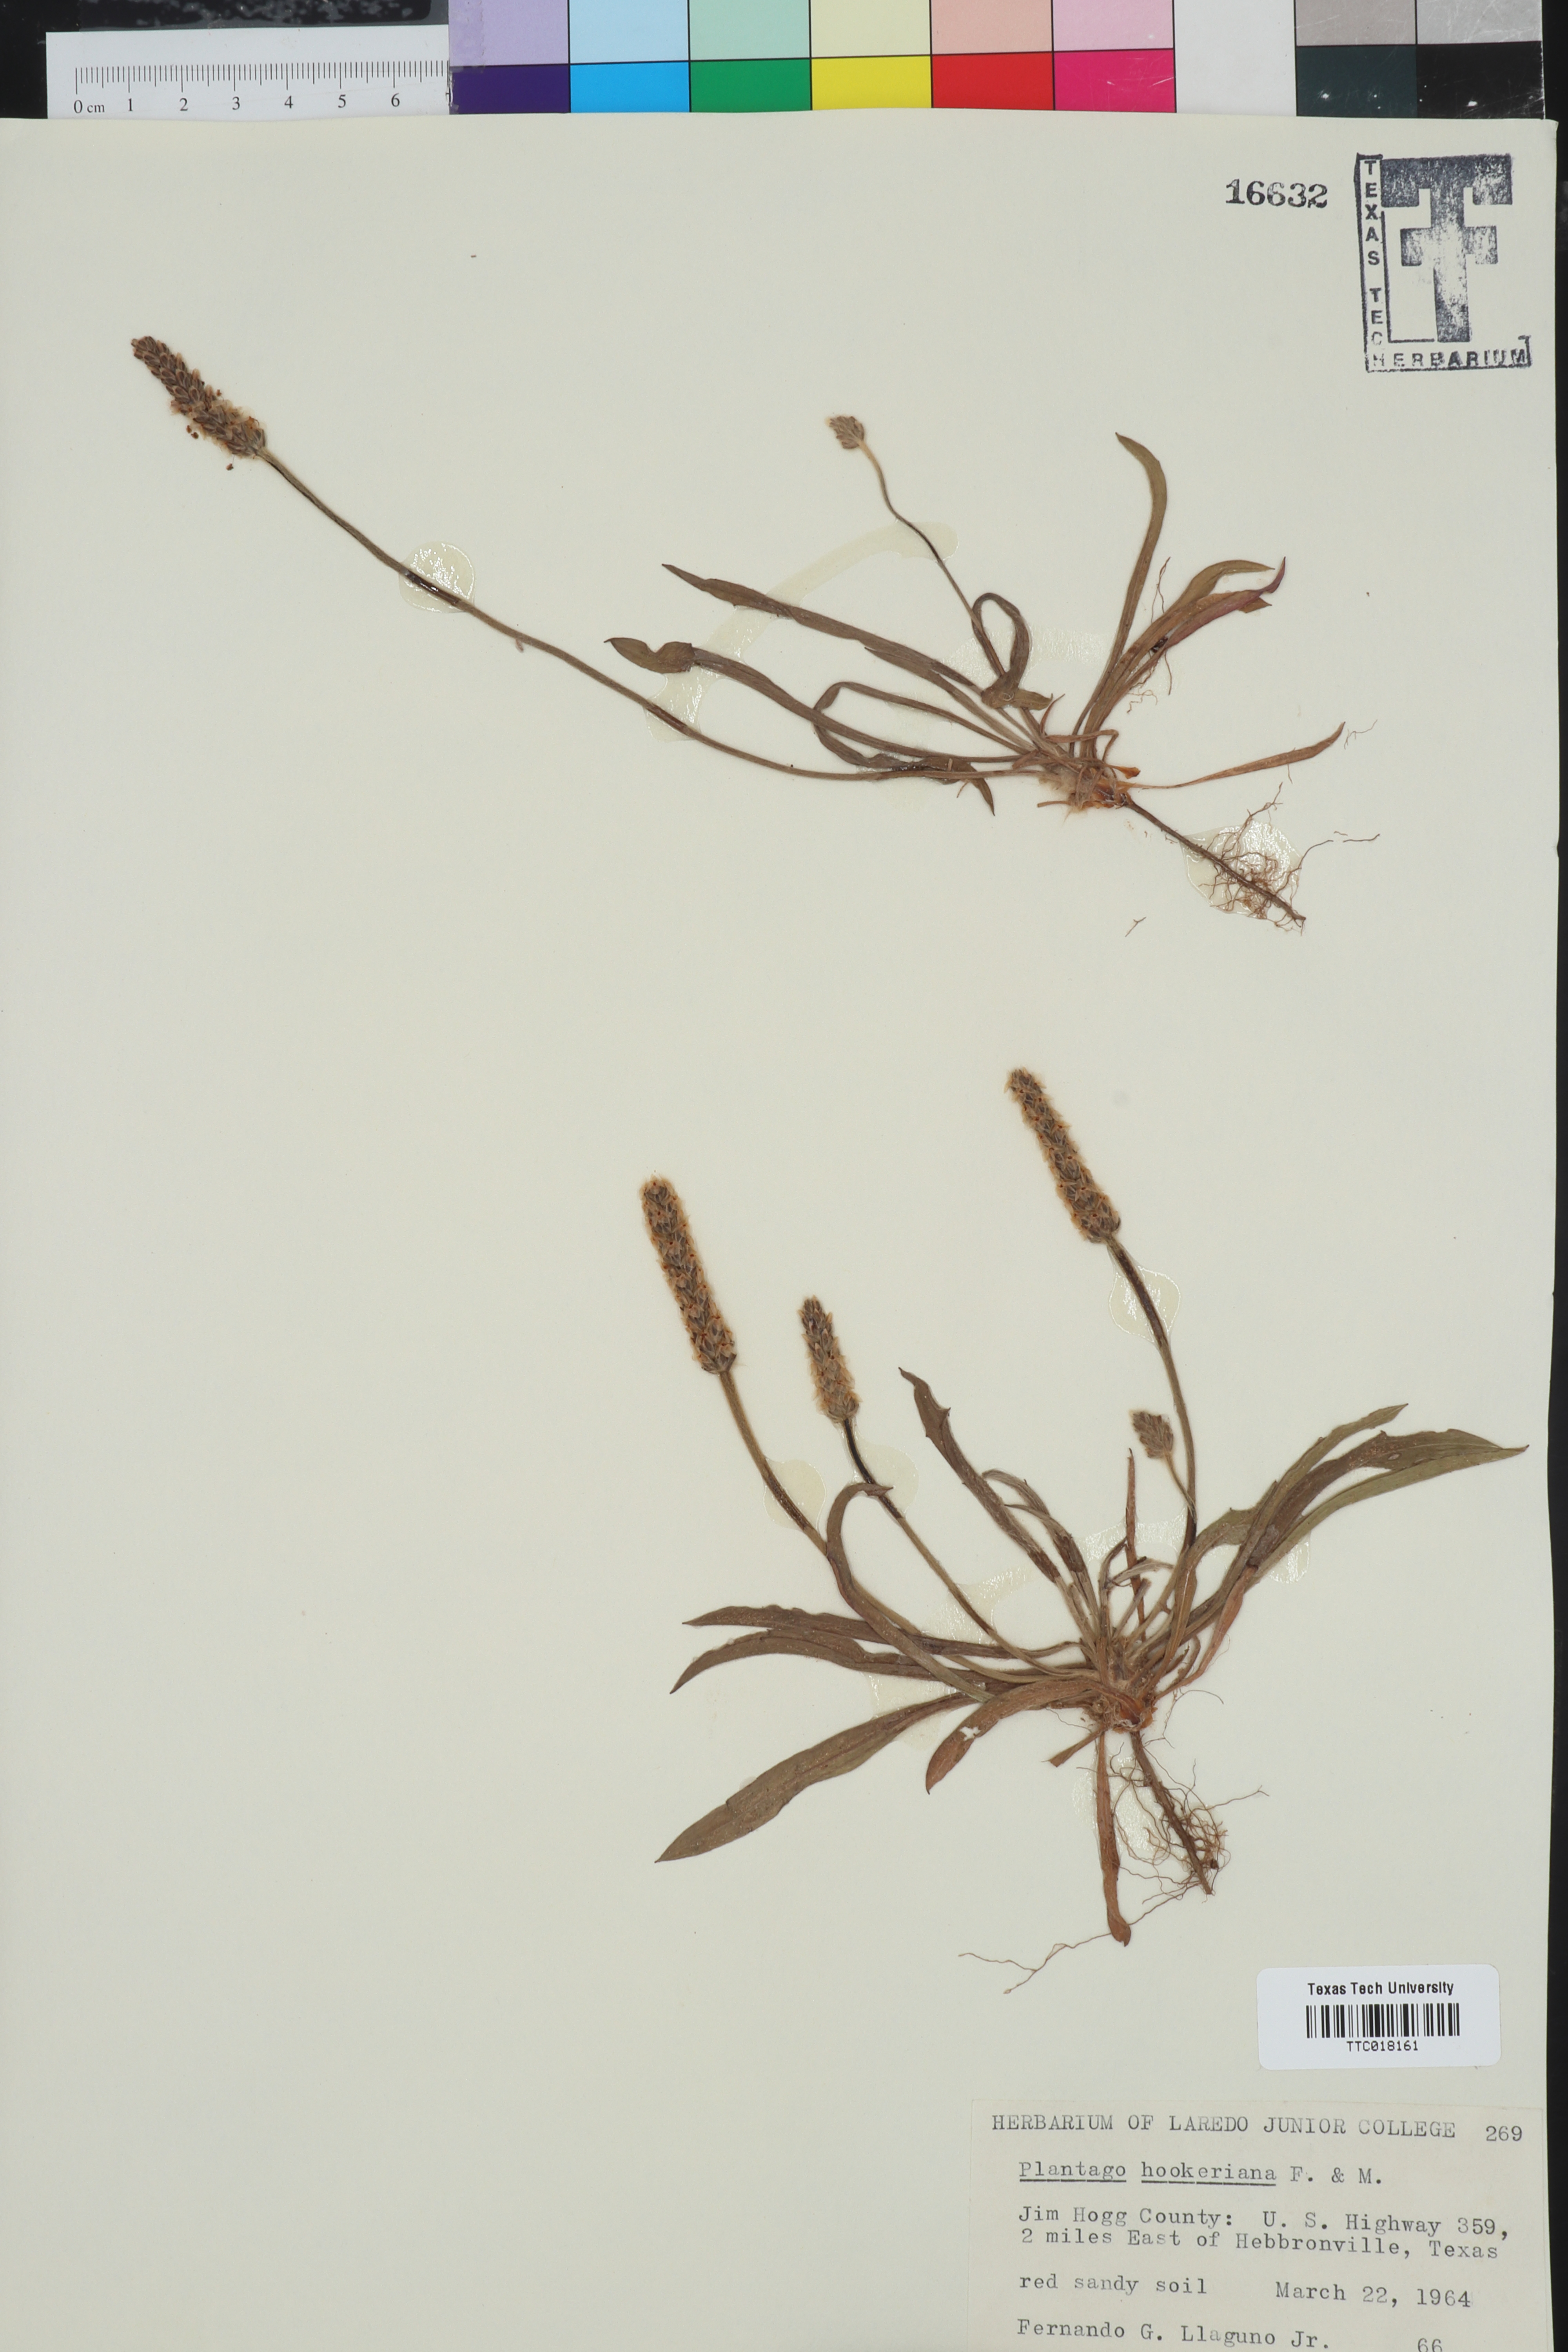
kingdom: Plantae
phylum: Tracheophyta
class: Magnoliopsida
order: Lamiales
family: Plantaginaceae
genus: Plantago
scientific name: Plantago hookeriana
